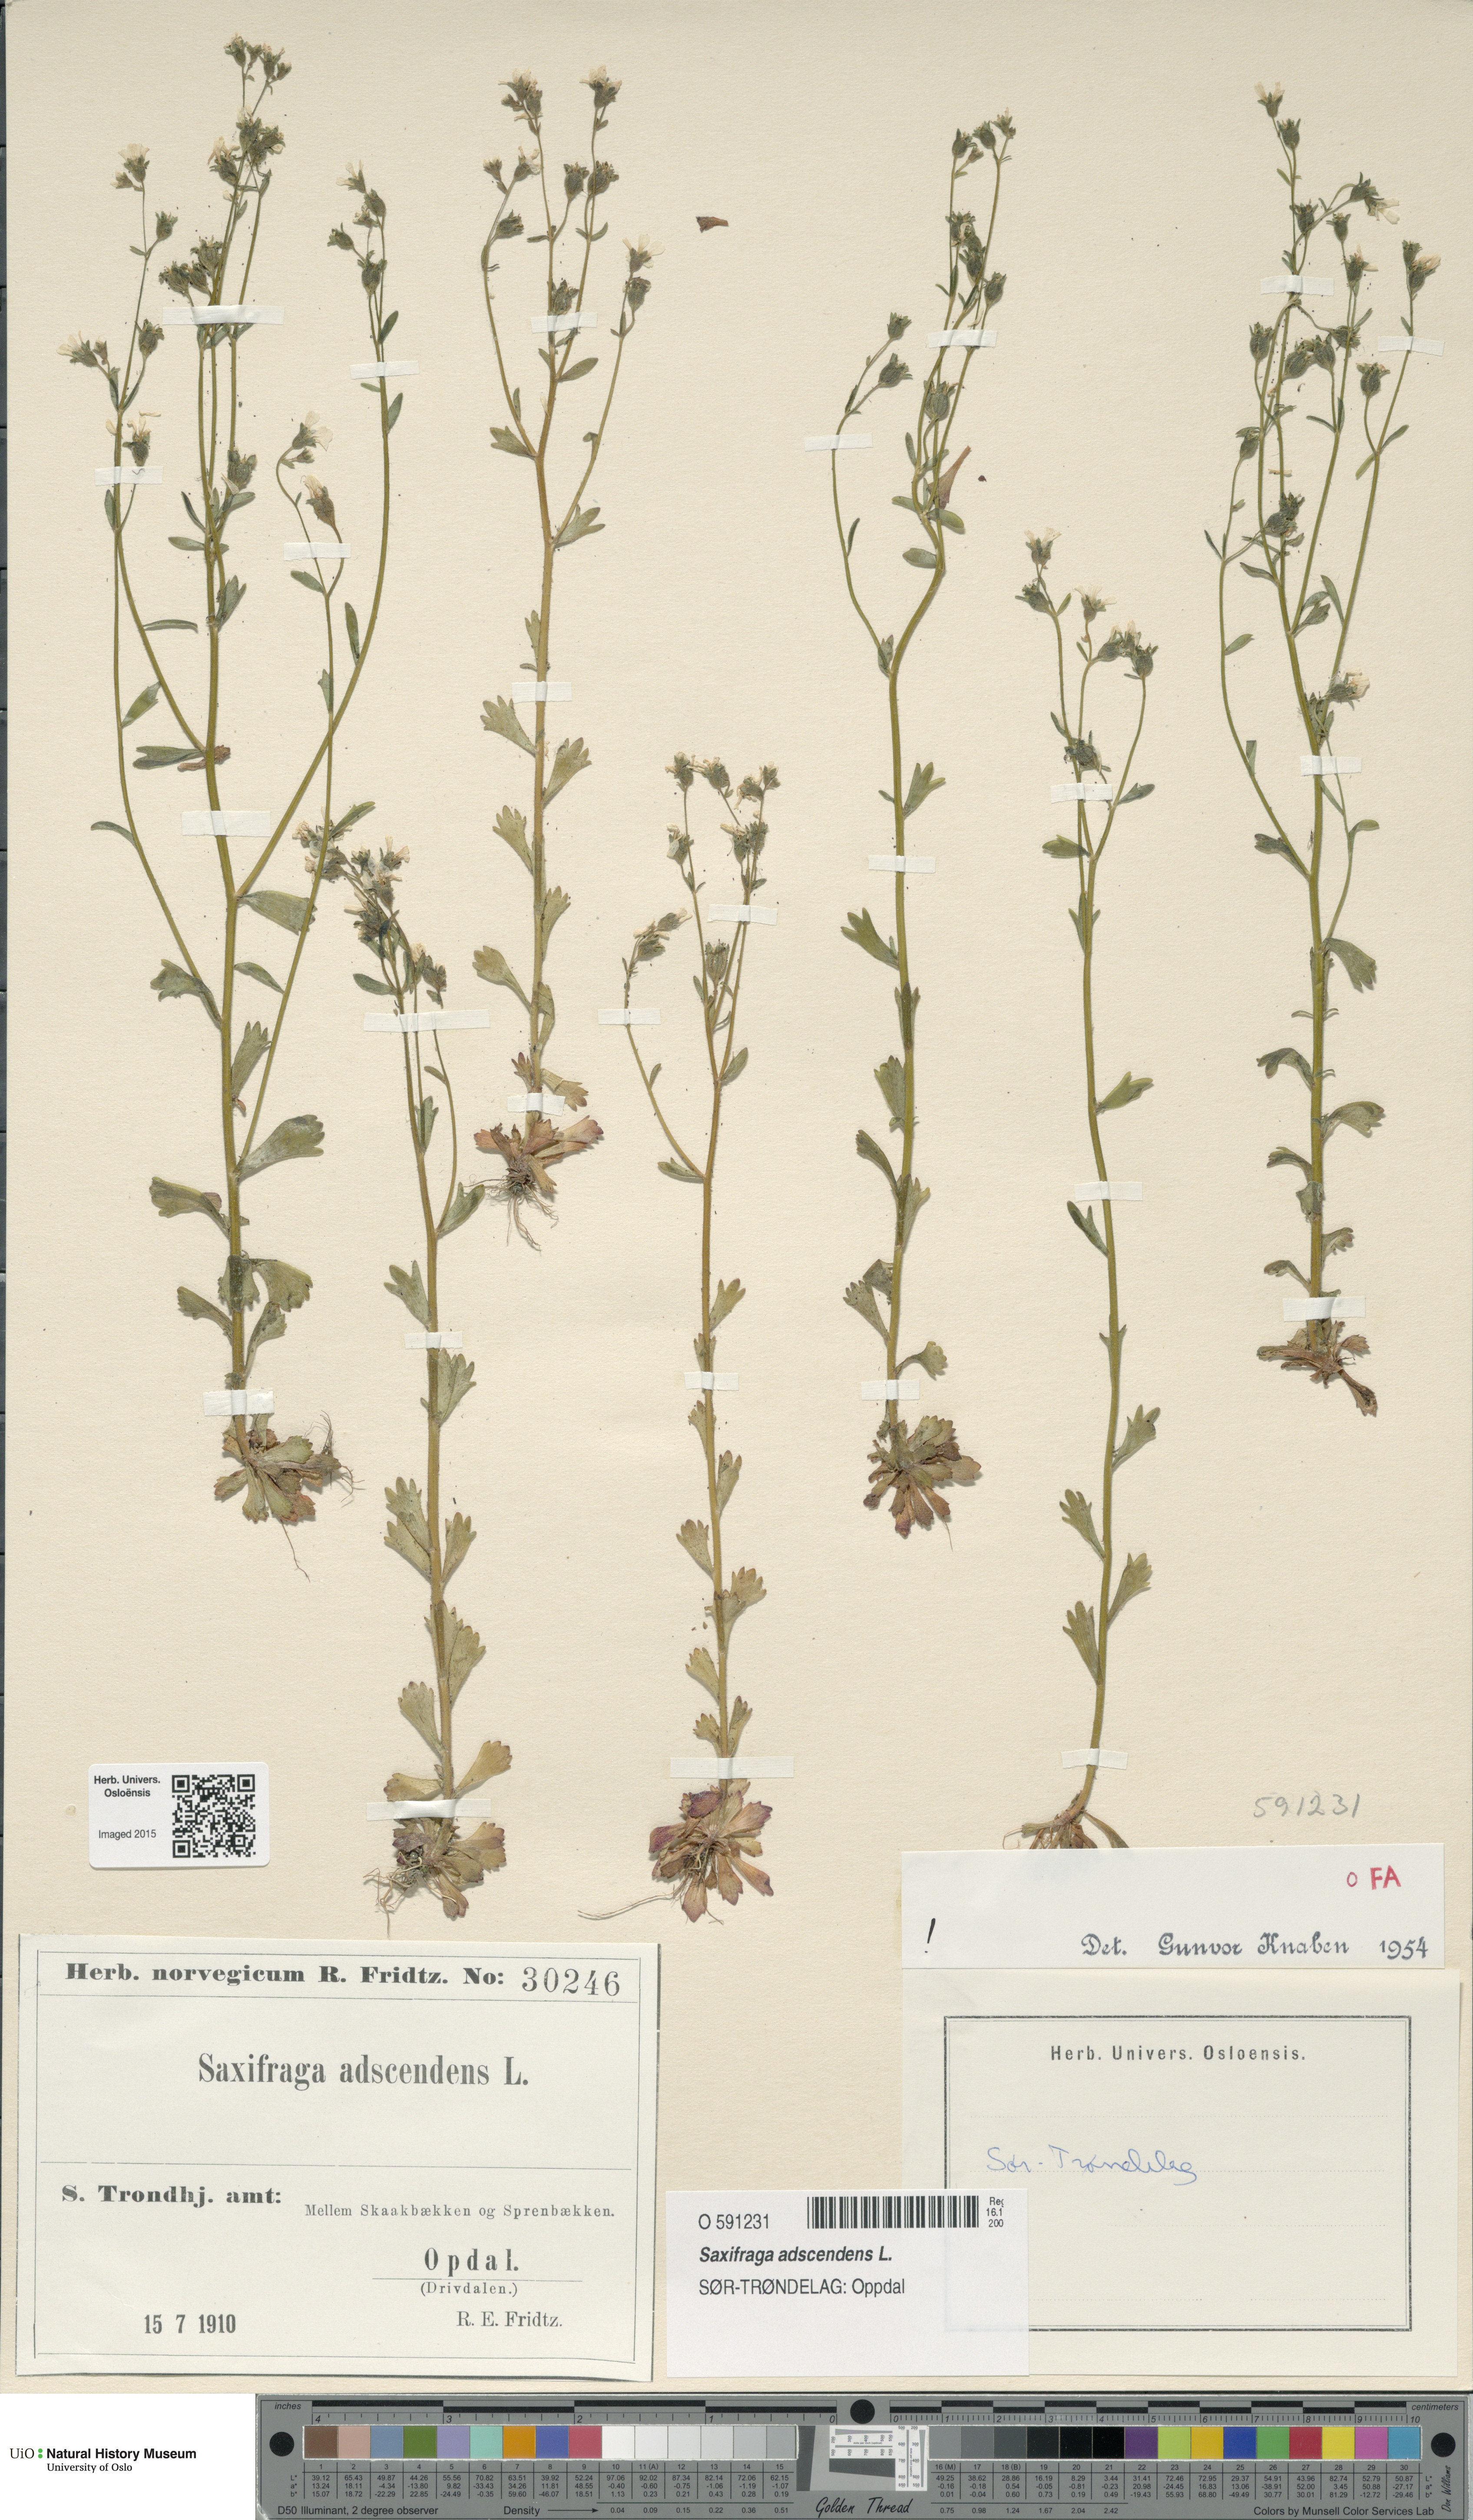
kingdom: Plantae
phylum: Tracheophyta
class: Magnoliopsida
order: Saxifragales
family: Saxifragaceae
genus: Saxifraga
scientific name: Saxifraga adscendens
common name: Ascending saxifrage
